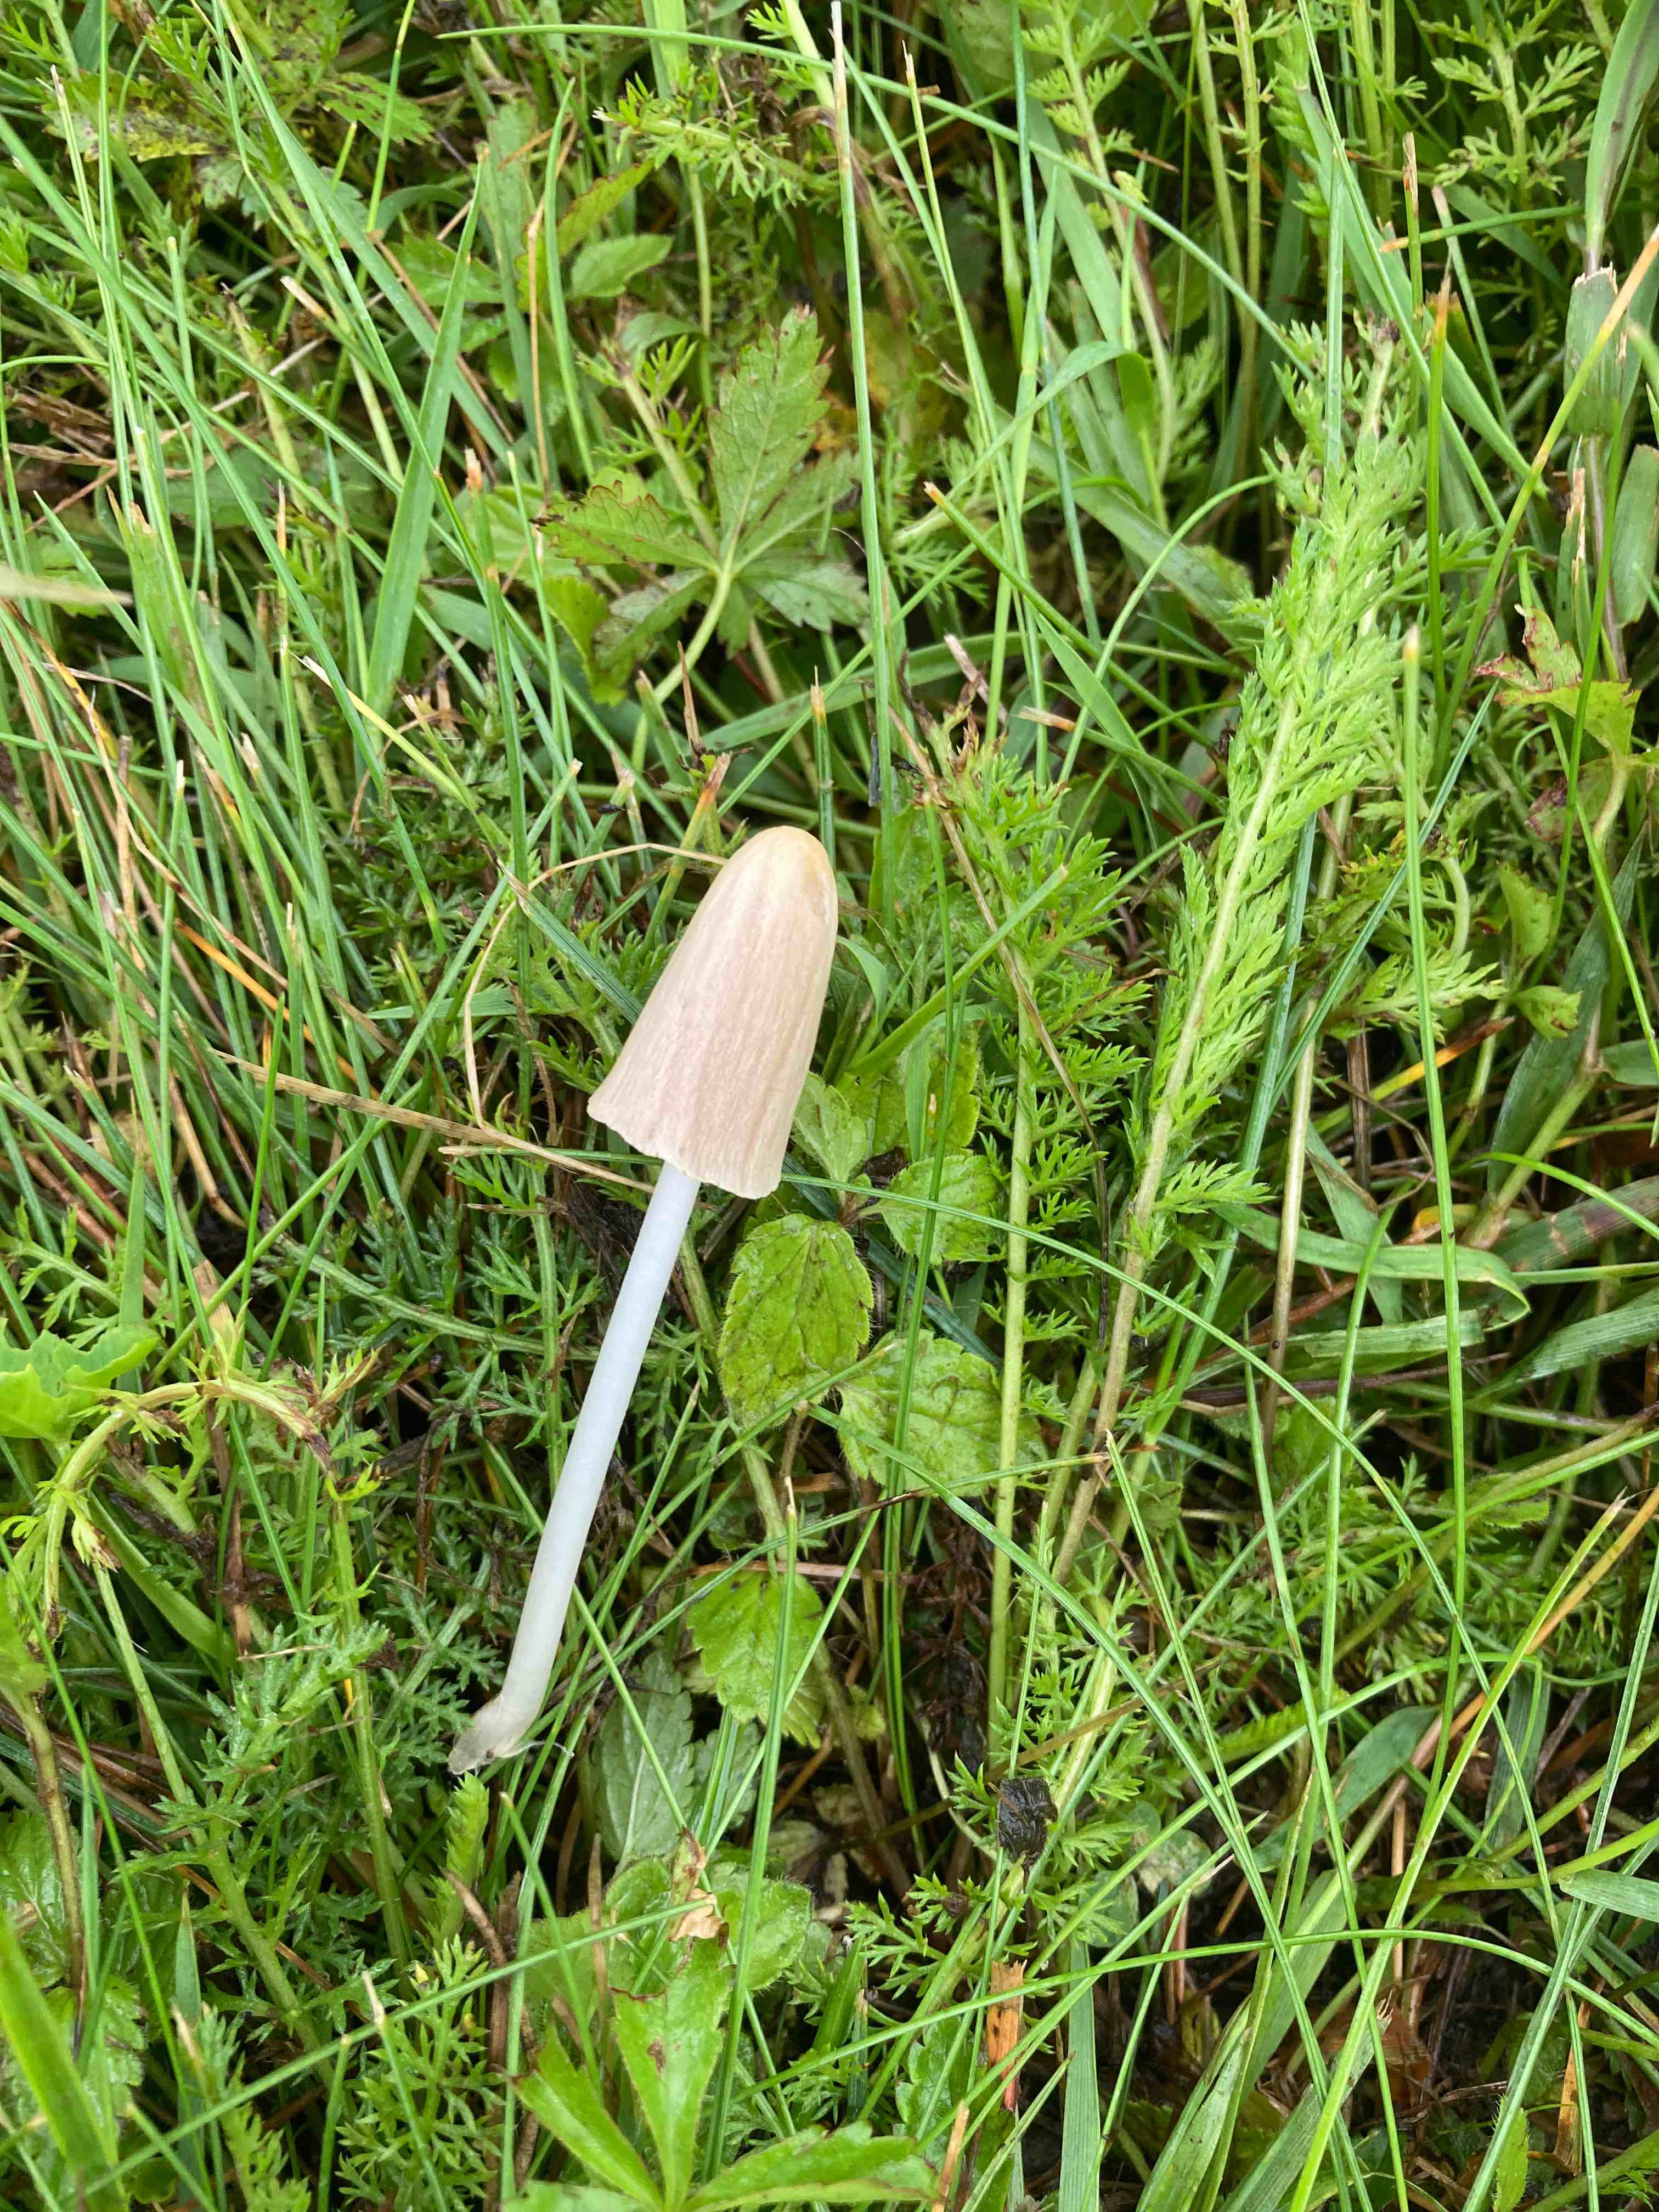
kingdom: Fungi
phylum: Basidiomycota
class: Agaricomycetes
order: Agaricales
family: Bolbitiaceae
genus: Conocybe
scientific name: Conocybe apala
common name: mælkehvid keglehat
